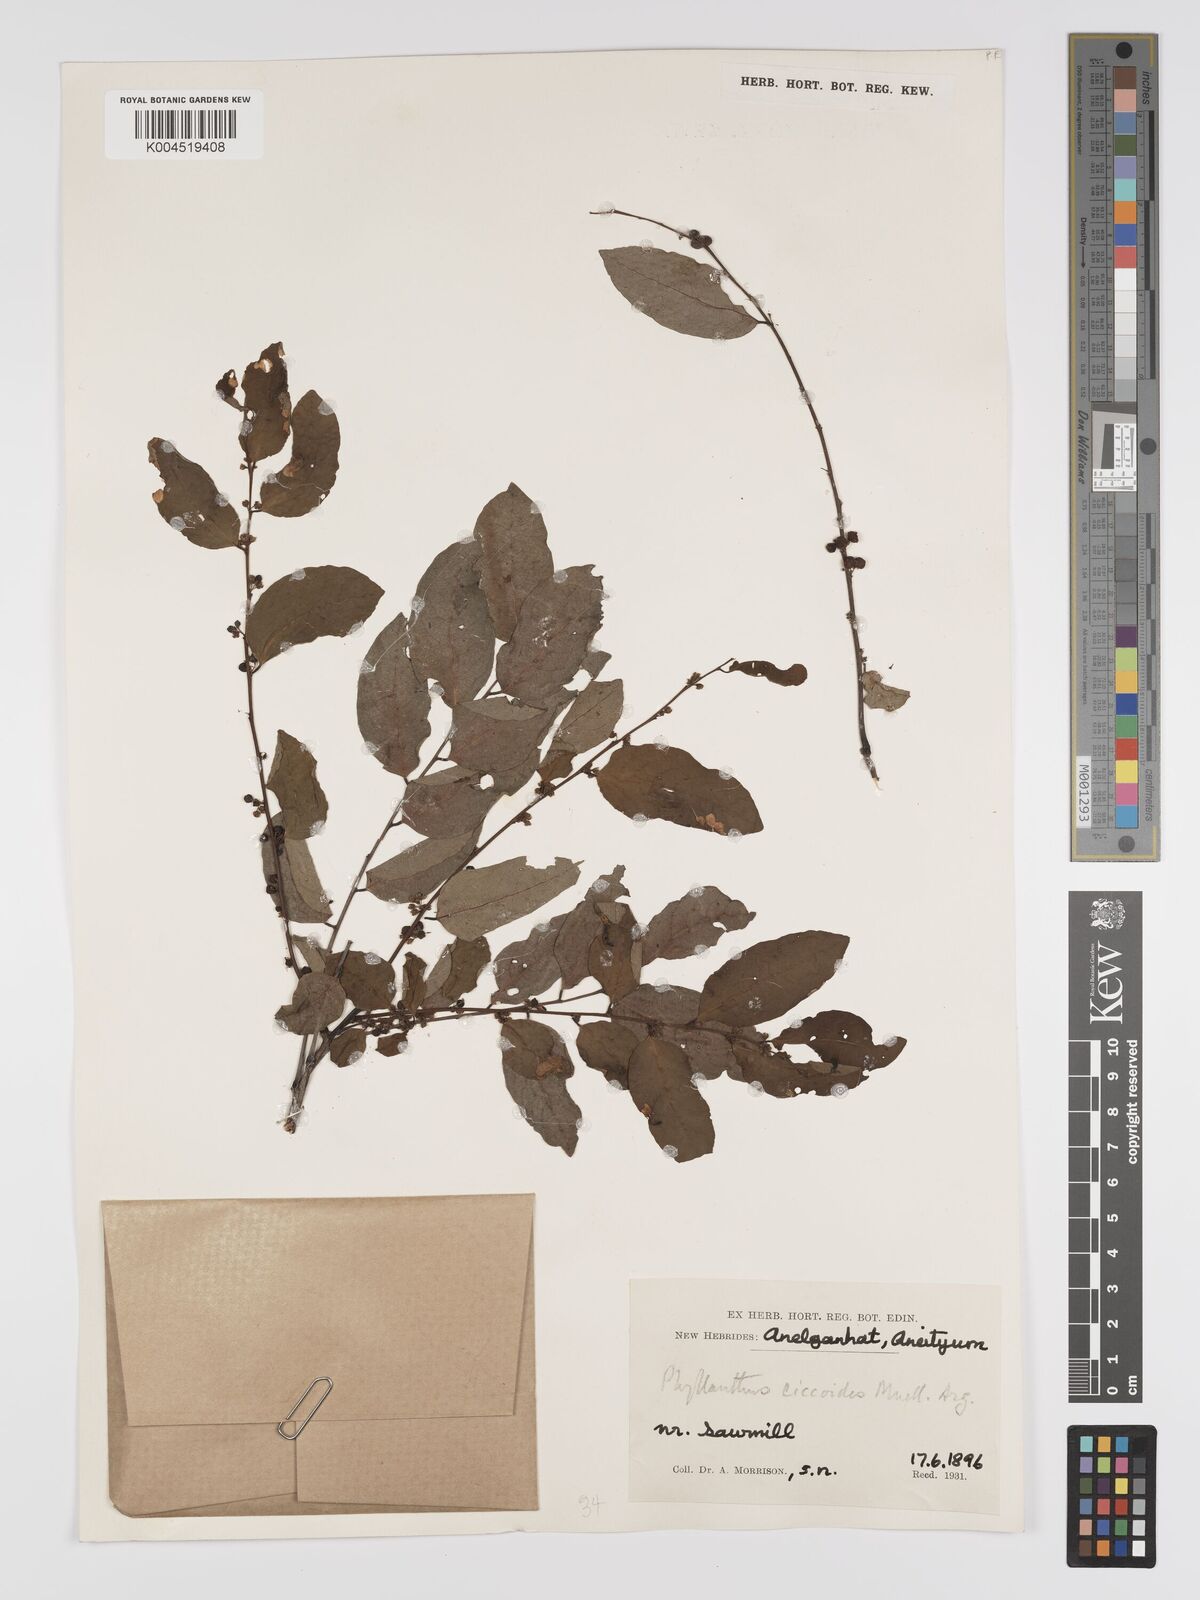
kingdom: Plantae
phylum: Tracheophyta
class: Magnoliopsida
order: Malpighiales
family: Phyllanthaceae
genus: Phyllanthus
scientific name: Phyllanthus ciccoides
